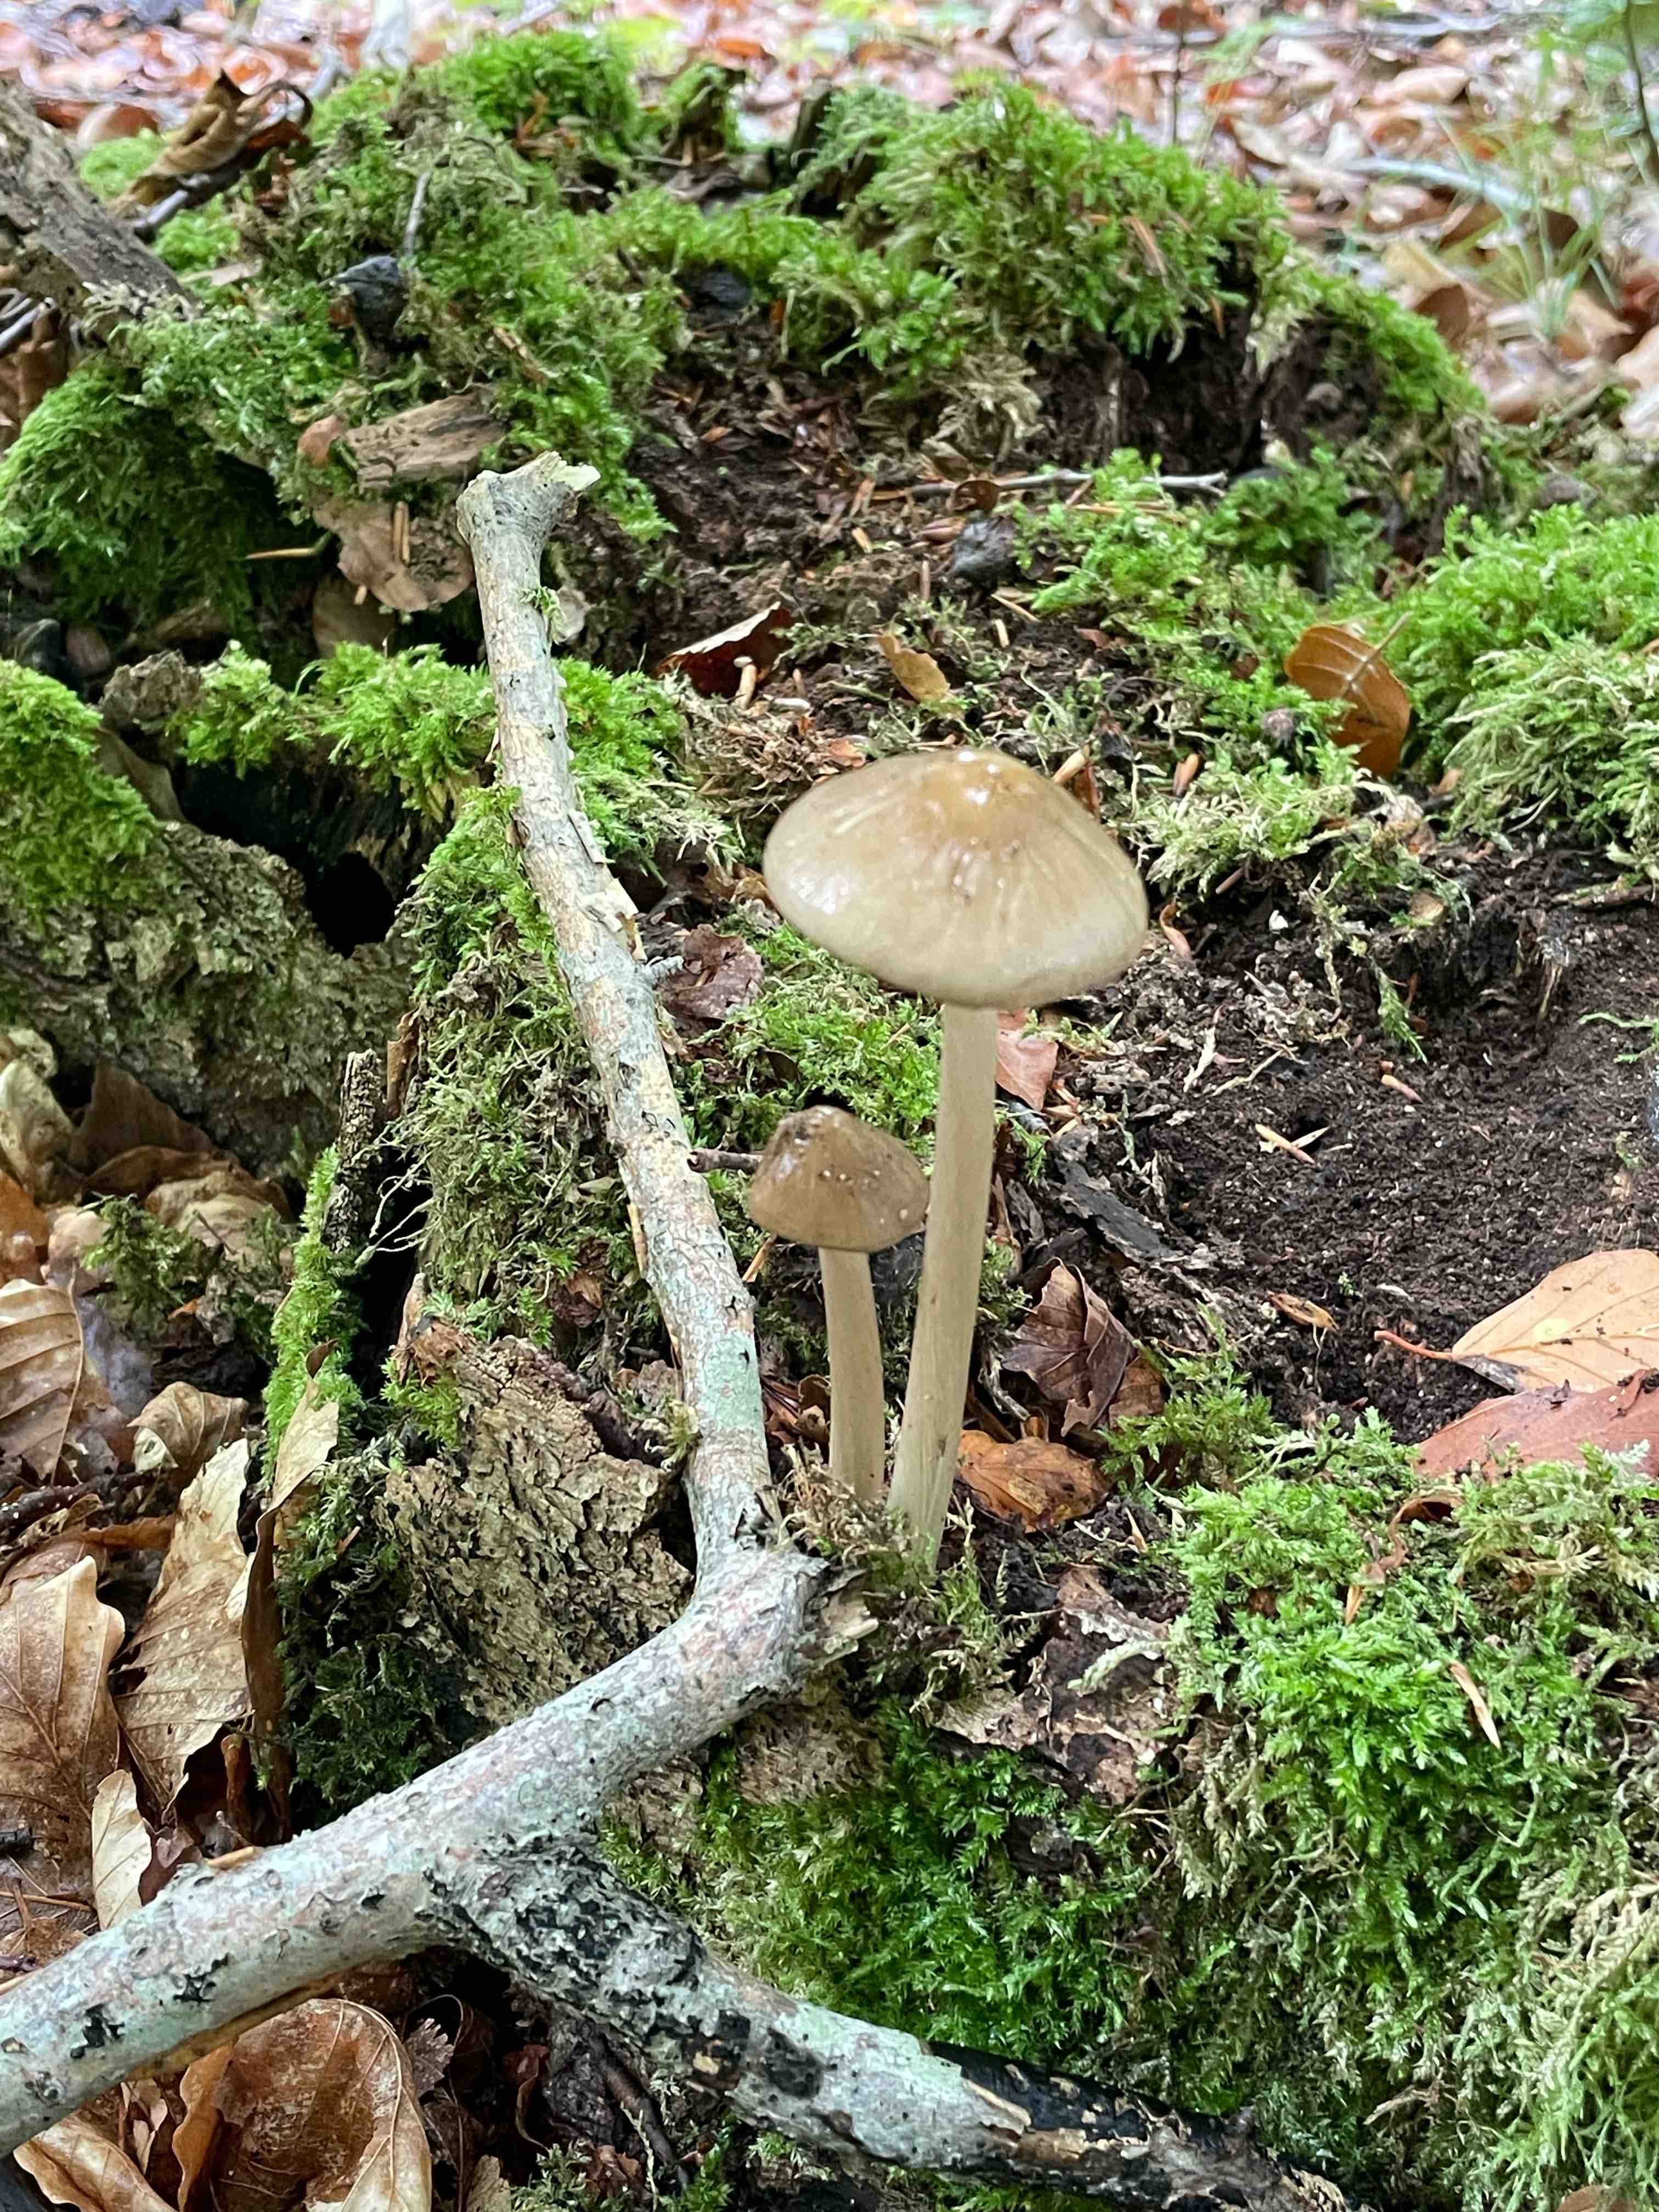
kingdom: Fungi
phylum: Basidiomycota
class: Agaricomycetes
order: Agaricales
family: Physalacriaceae
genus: Hymenopellis
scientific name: Hymenopellis radicata
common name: almindelig pælerodshat
